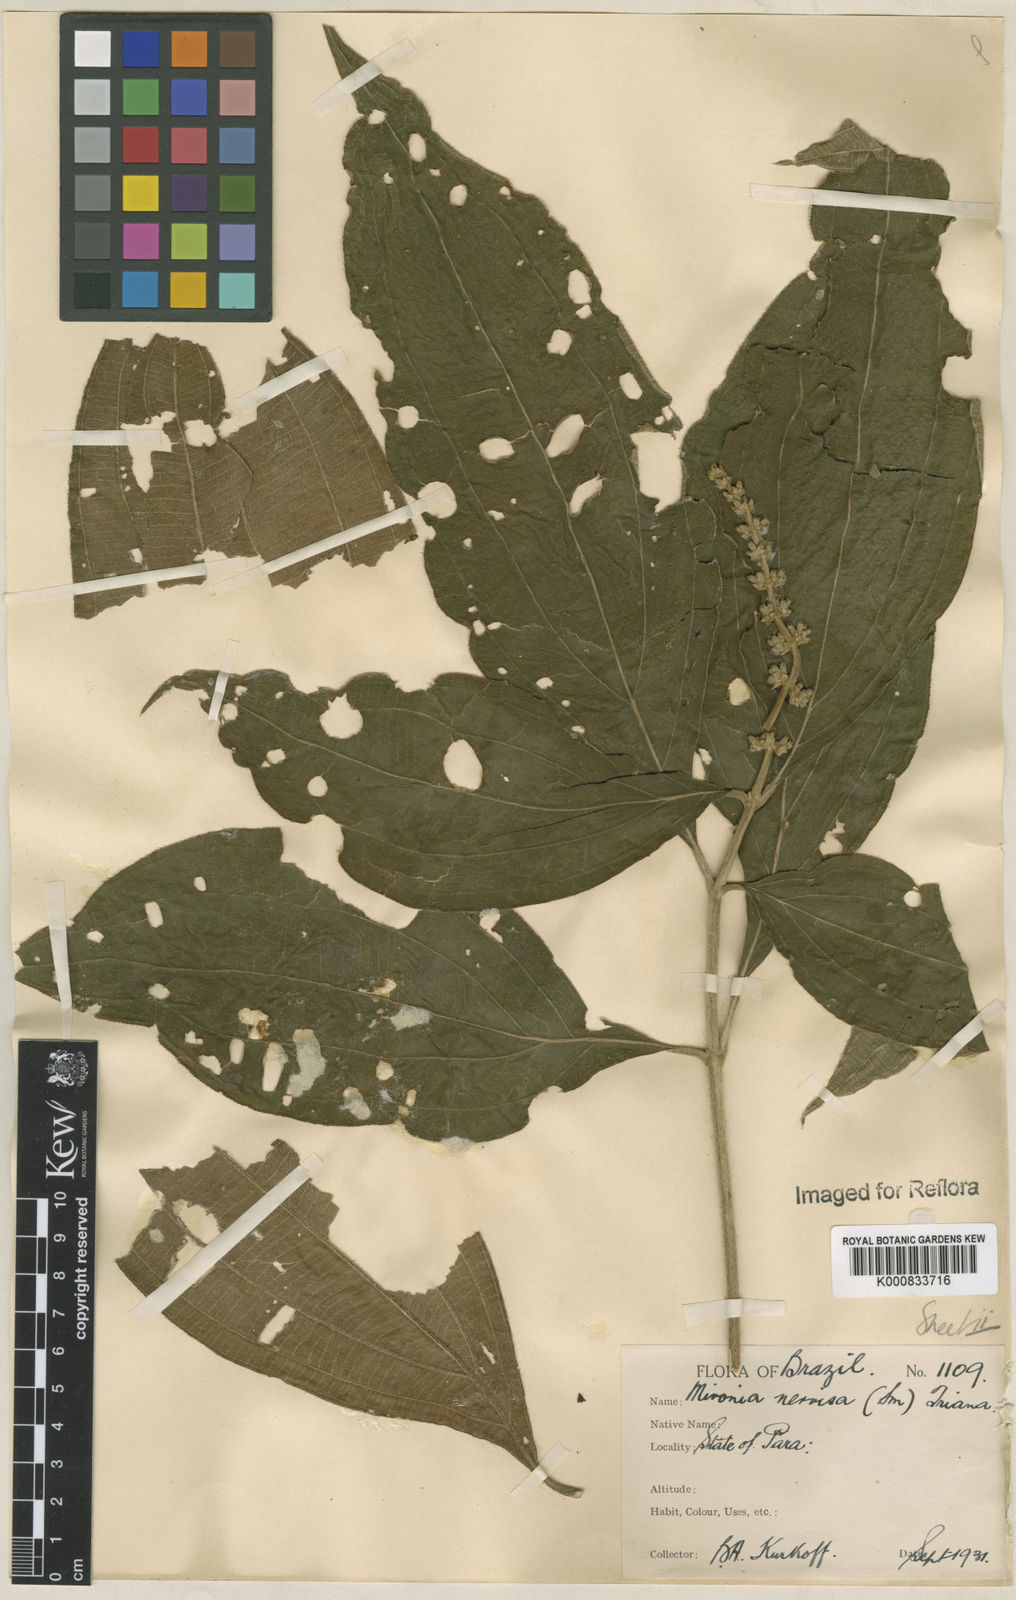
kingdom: Plantae
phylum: Tracheophyta
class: Magnoliopsida
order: Myrtales
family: Melastomataceae
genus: Miconia
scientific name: Miconia nervosa
